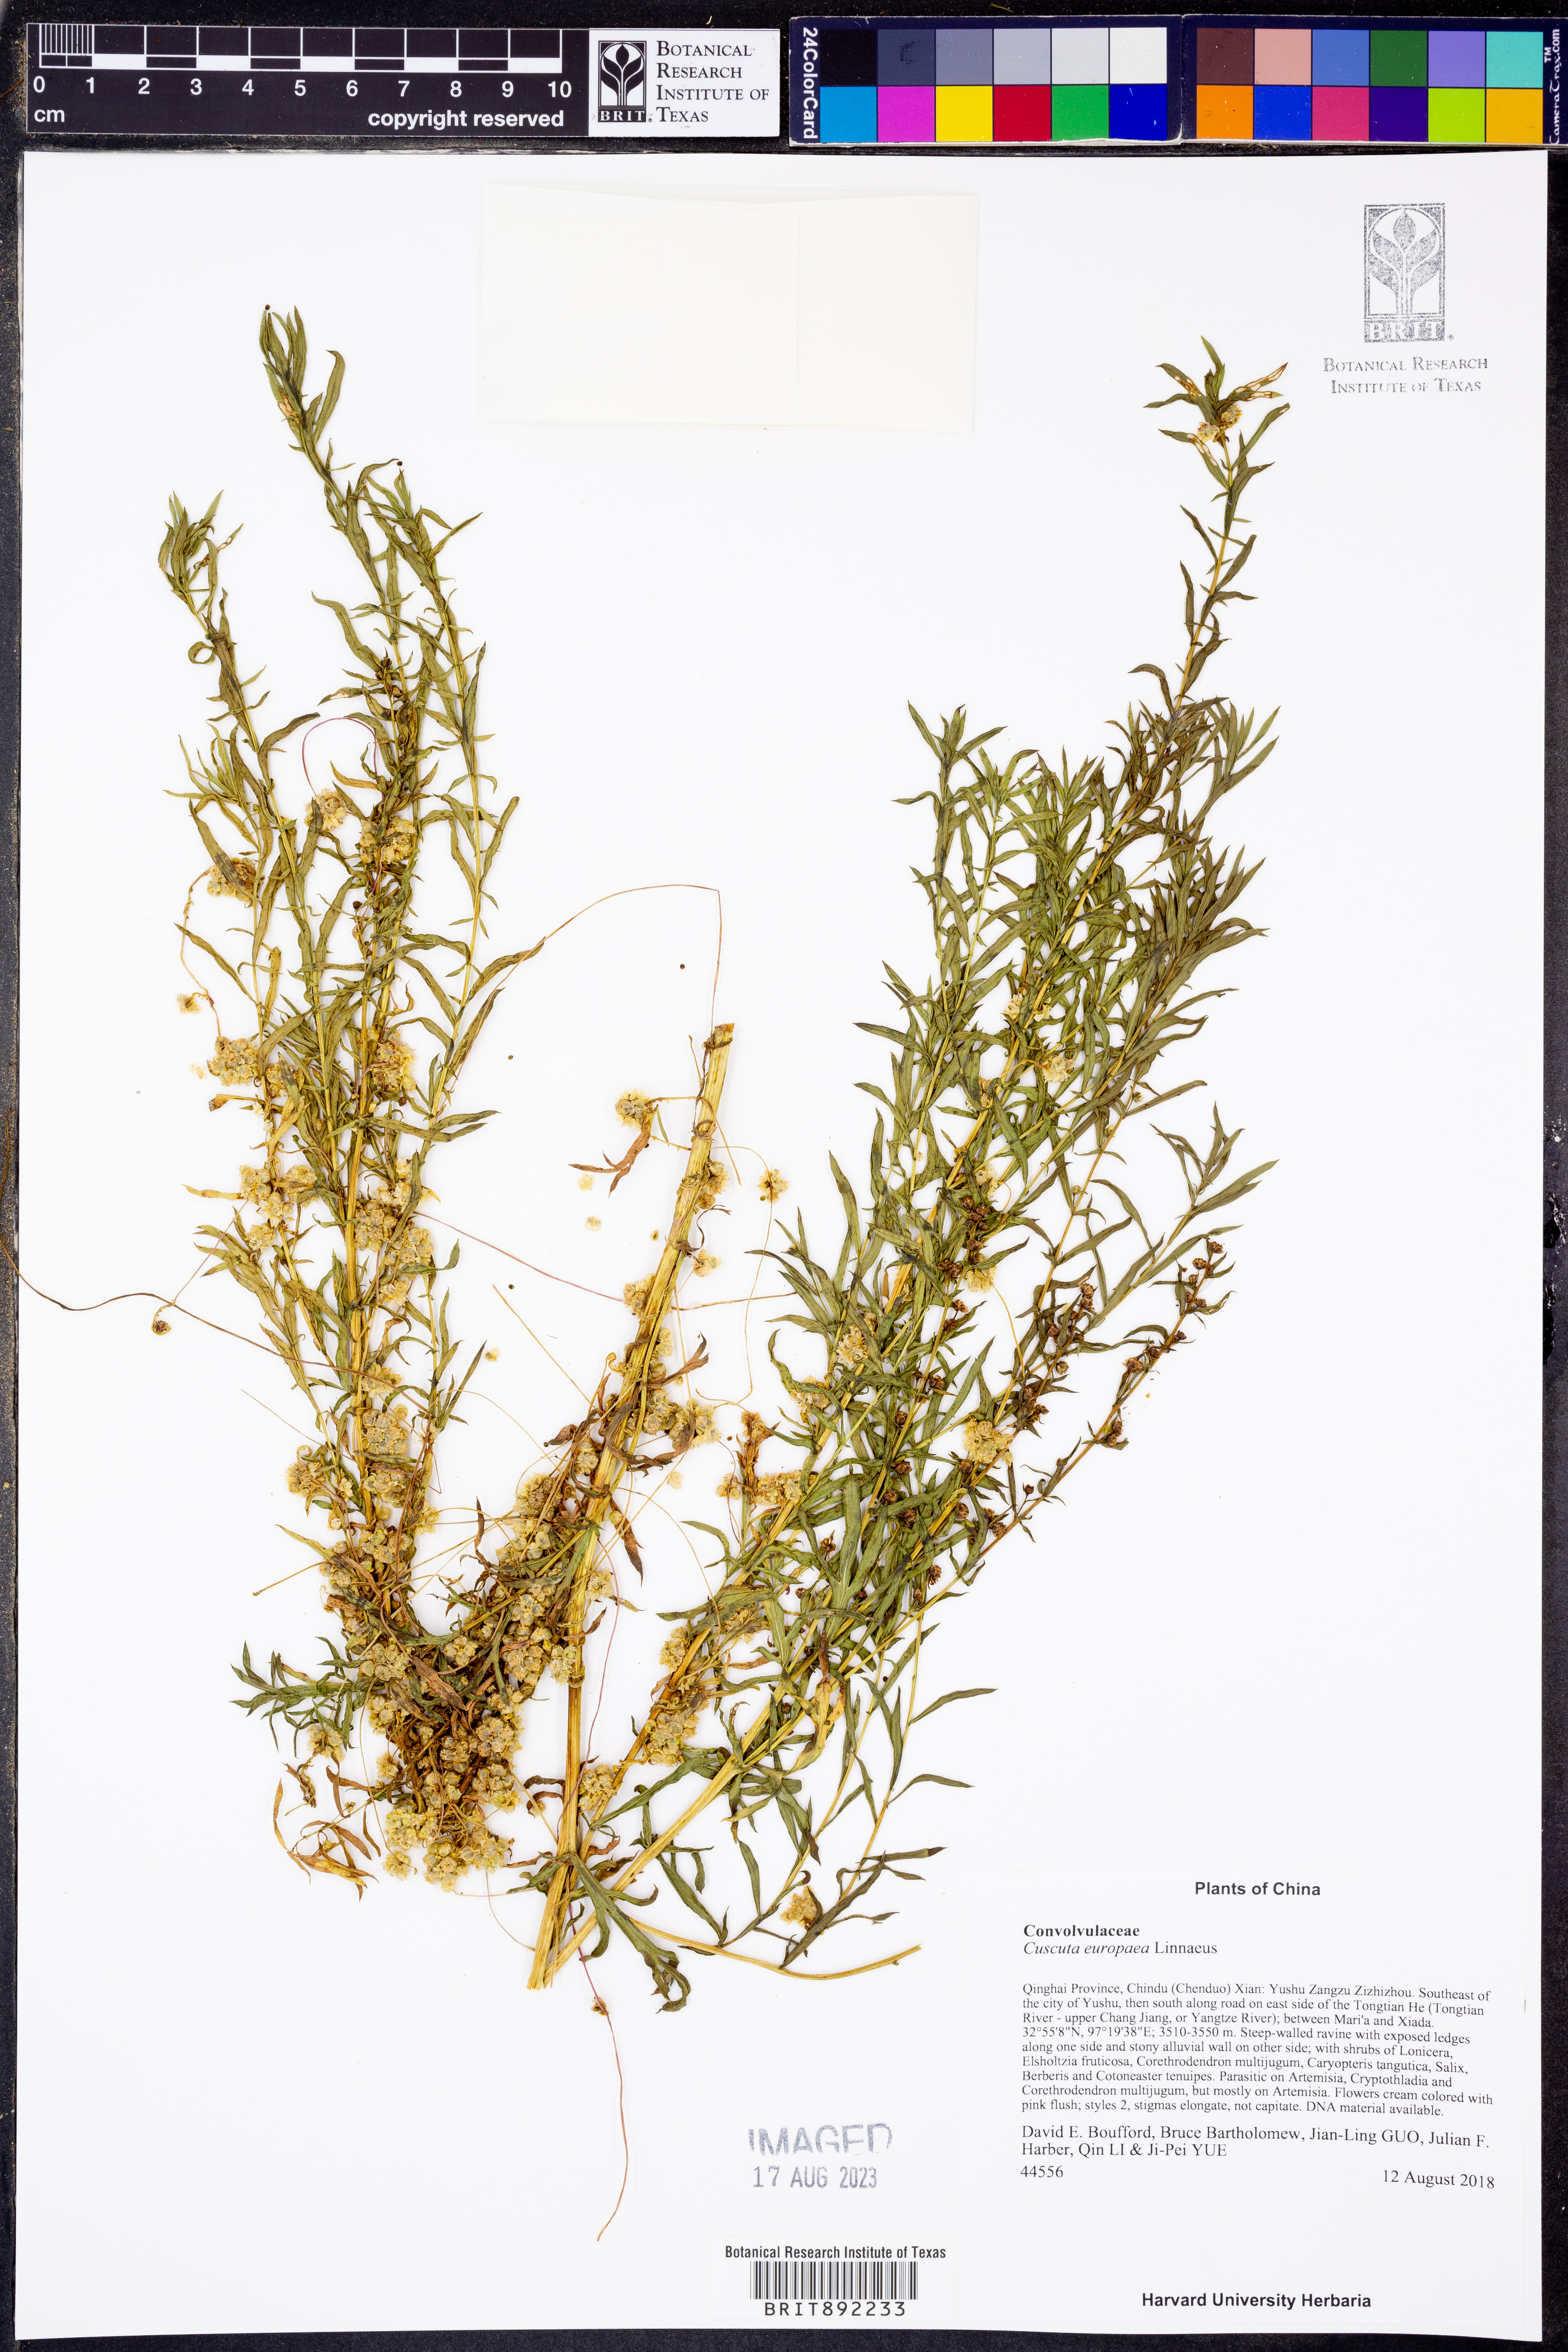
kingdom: Plantae
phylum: Tracheophyta
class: Magnoliopsida
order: Solanales
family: Convolvulaceae
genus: Cuscuta
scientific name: Cuscuta europaea
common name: Greater dodder
